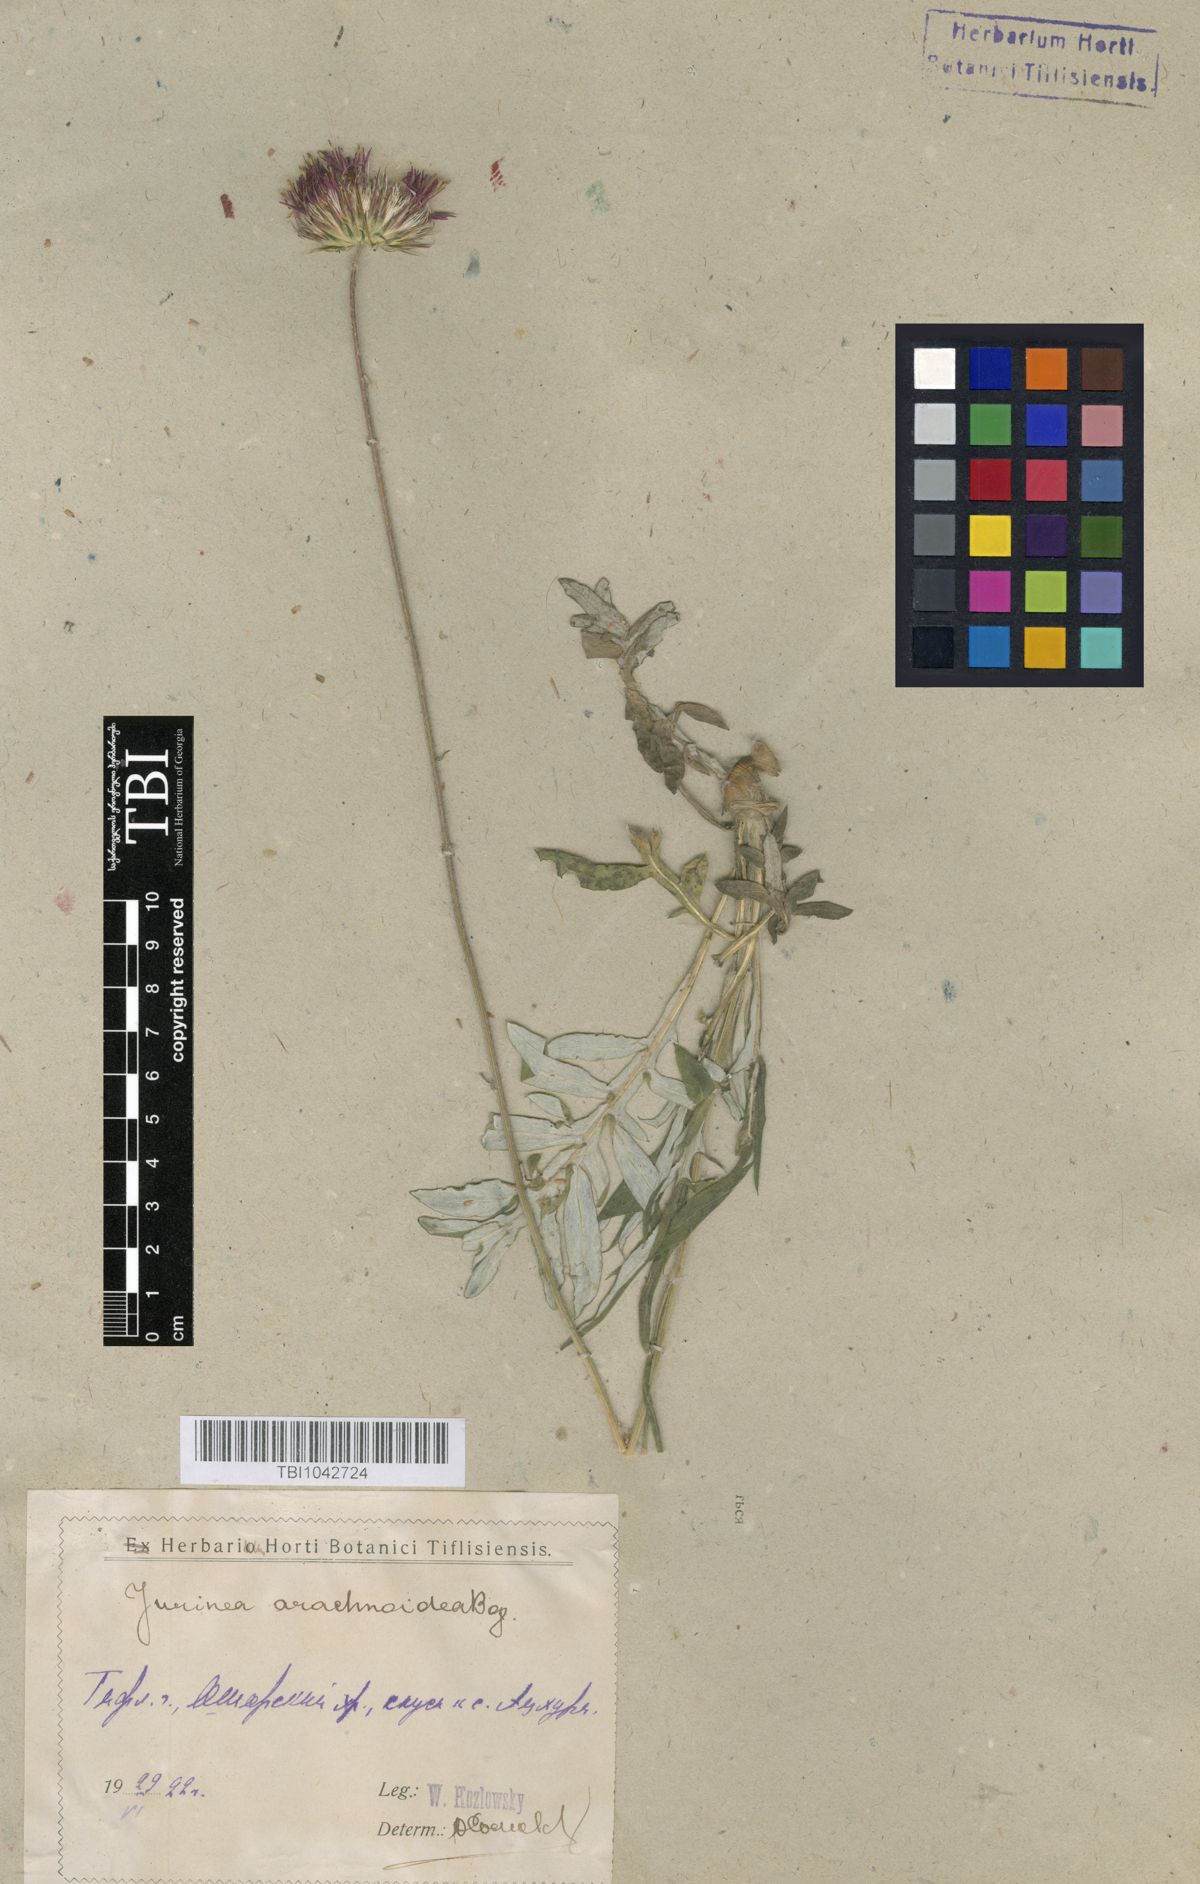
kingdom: Plantae
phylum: Tracheophyta
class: Magnoliopsida
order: Asterales
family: Asteraceae
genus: Jurinea
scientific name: Jurinea blanda
